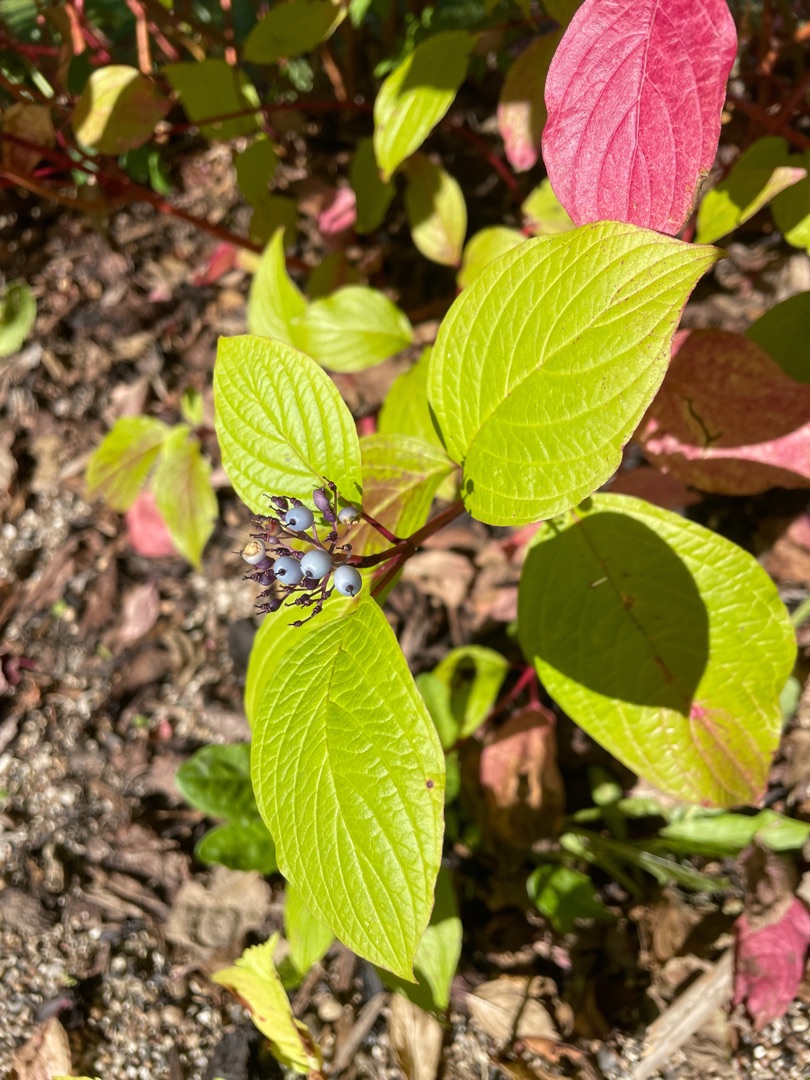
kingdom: Plantae
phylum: Tracheophyta
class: Magnoliopsida
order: Cornales
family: Cornaceae
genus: Cornus
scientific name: Cornus alba
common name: Hvid kornel
